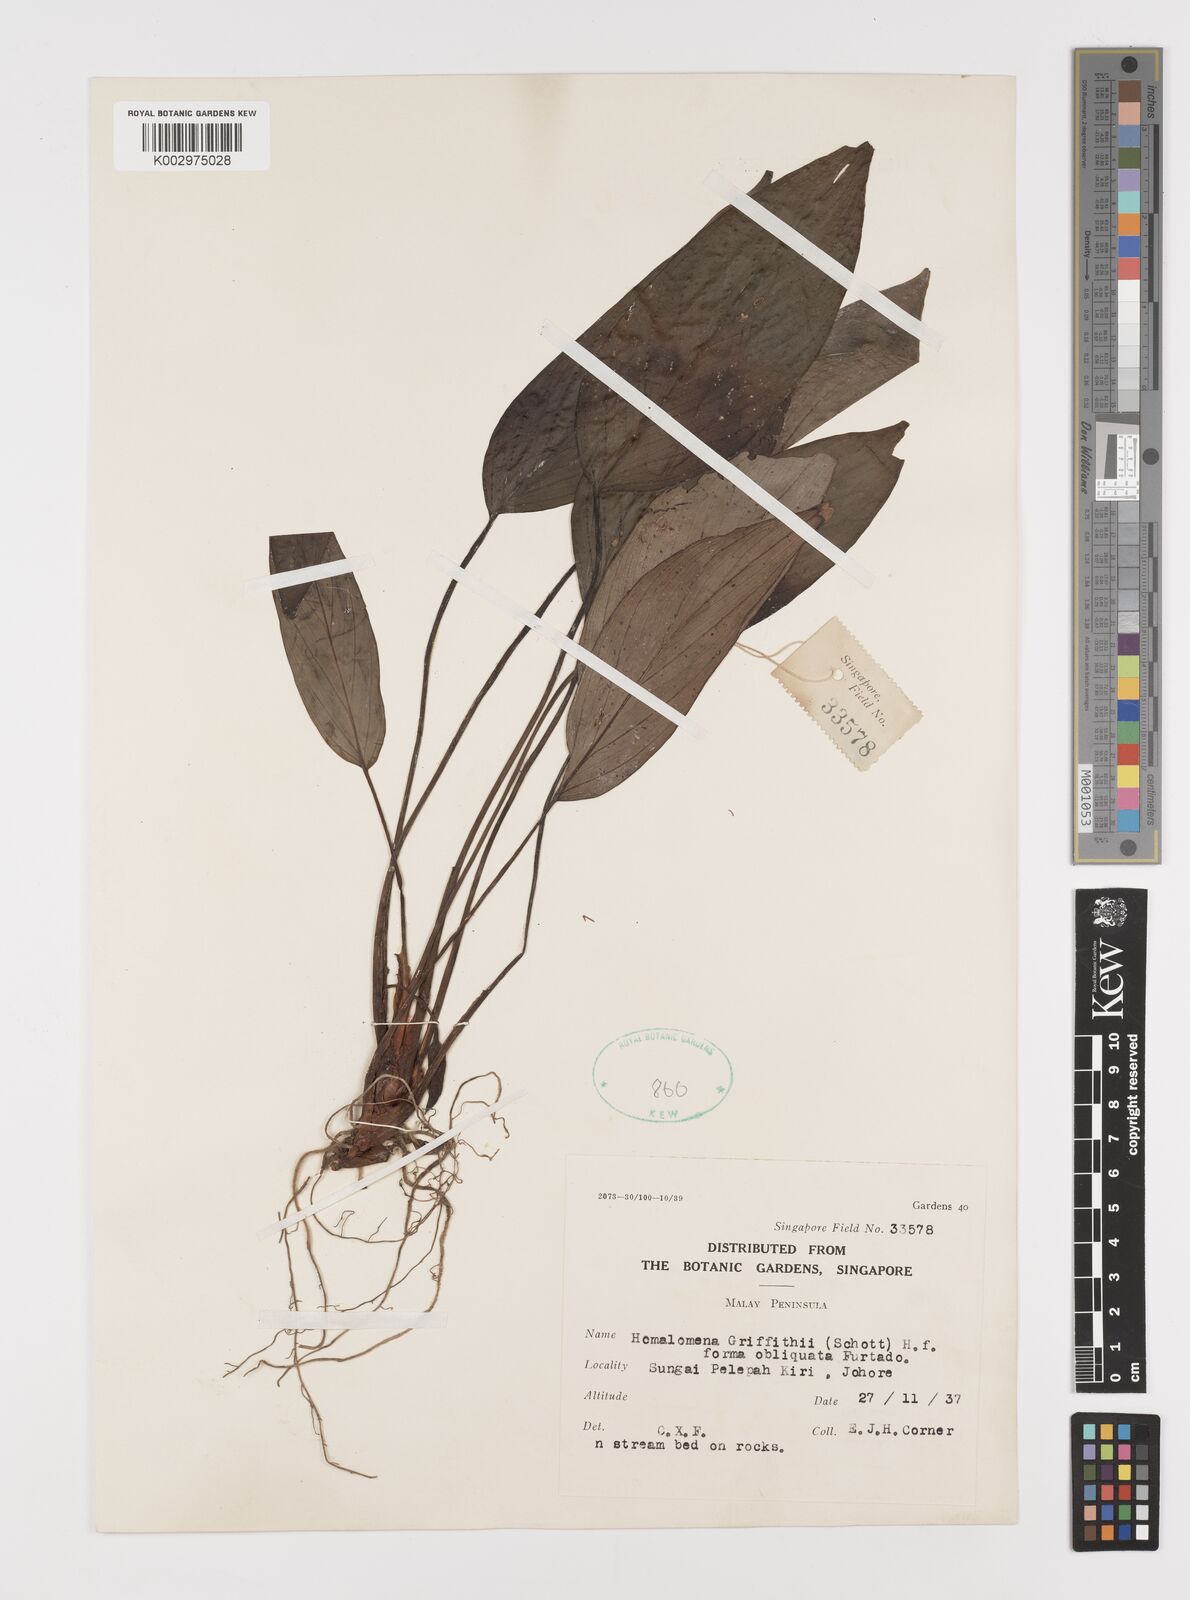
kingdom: Plantae
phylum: Tracheophyta
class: Liliopsida
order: Alismatales
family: Araceae
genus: Homalomena
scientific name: Homalomena griffithii
